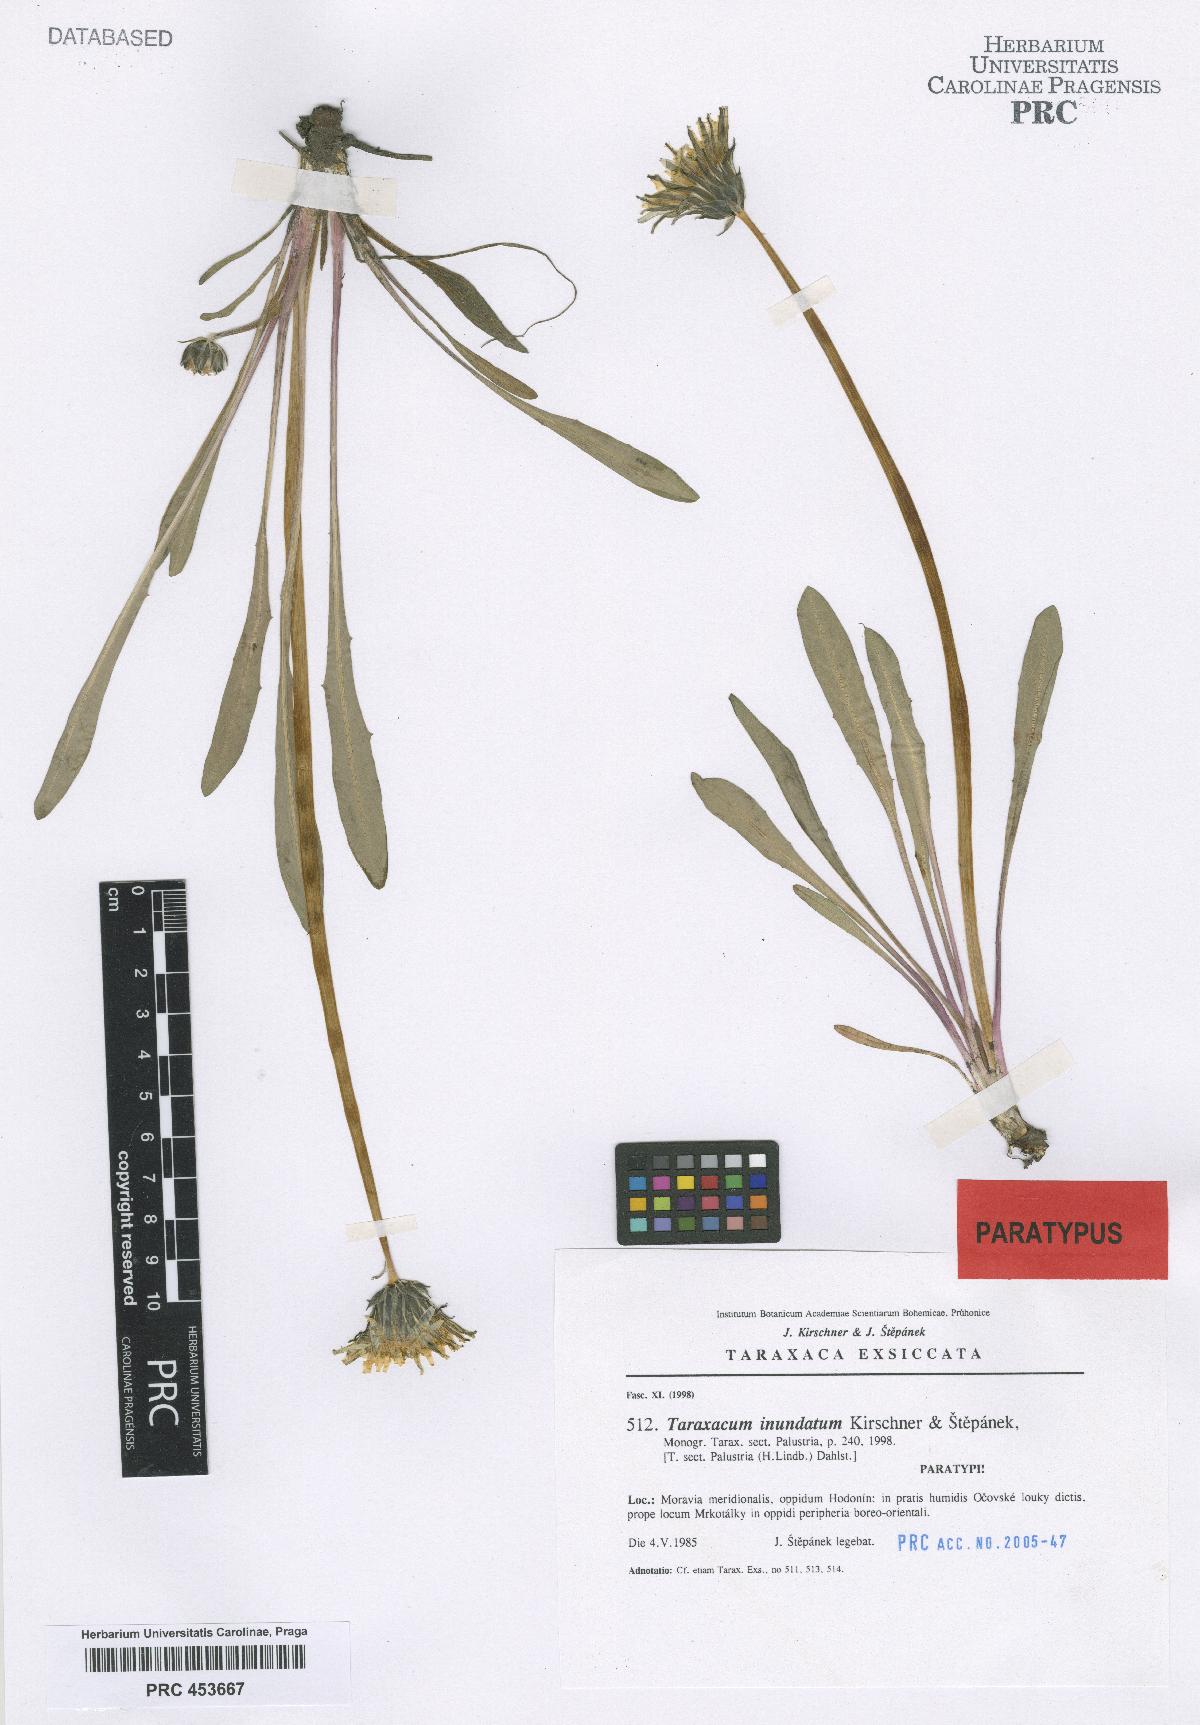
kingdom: Plantae
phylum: Tracheophyta
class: Magnoliopsida
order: Asterales
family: Asteraceae
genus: Taraxacum
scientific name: Taraxacum inundatum
